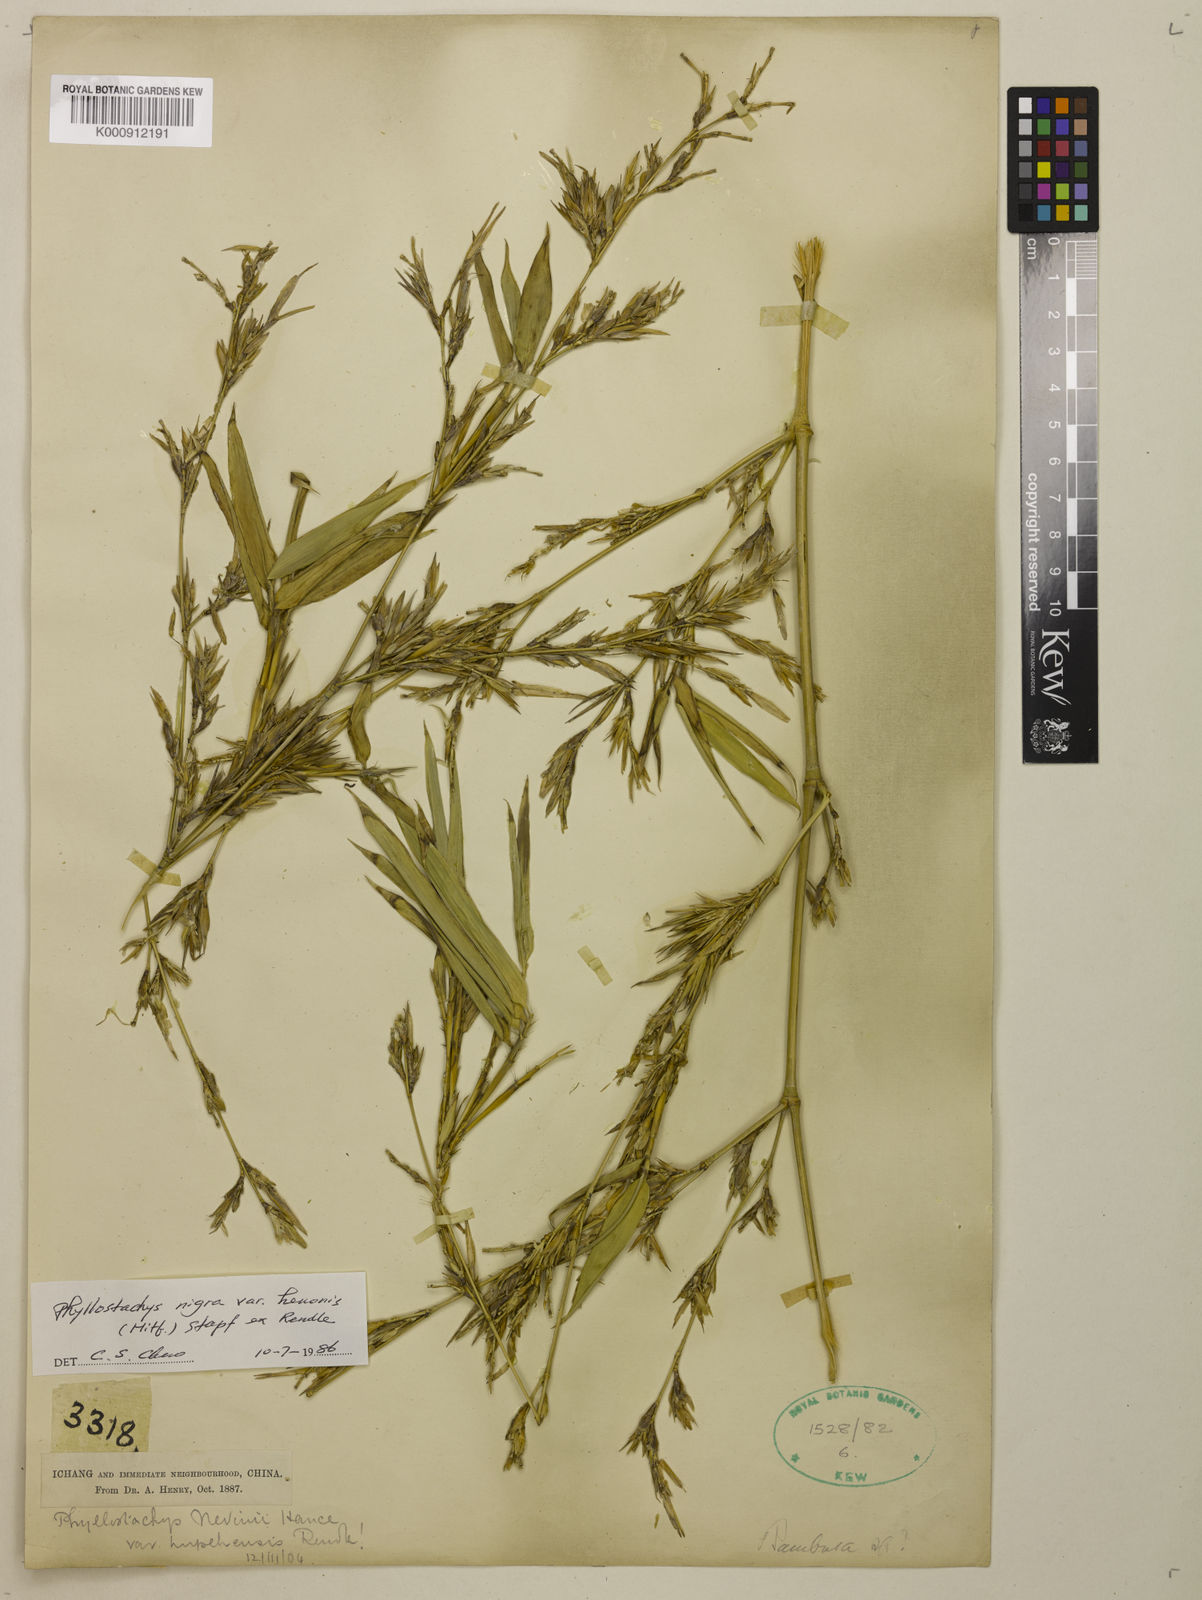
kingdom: Plantae
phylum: Tracheophyta
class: Liliopsida
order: Poales
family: Poaceae
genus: Phyllostachys
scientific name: Phyllostachys nigra
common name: Black bamboo
